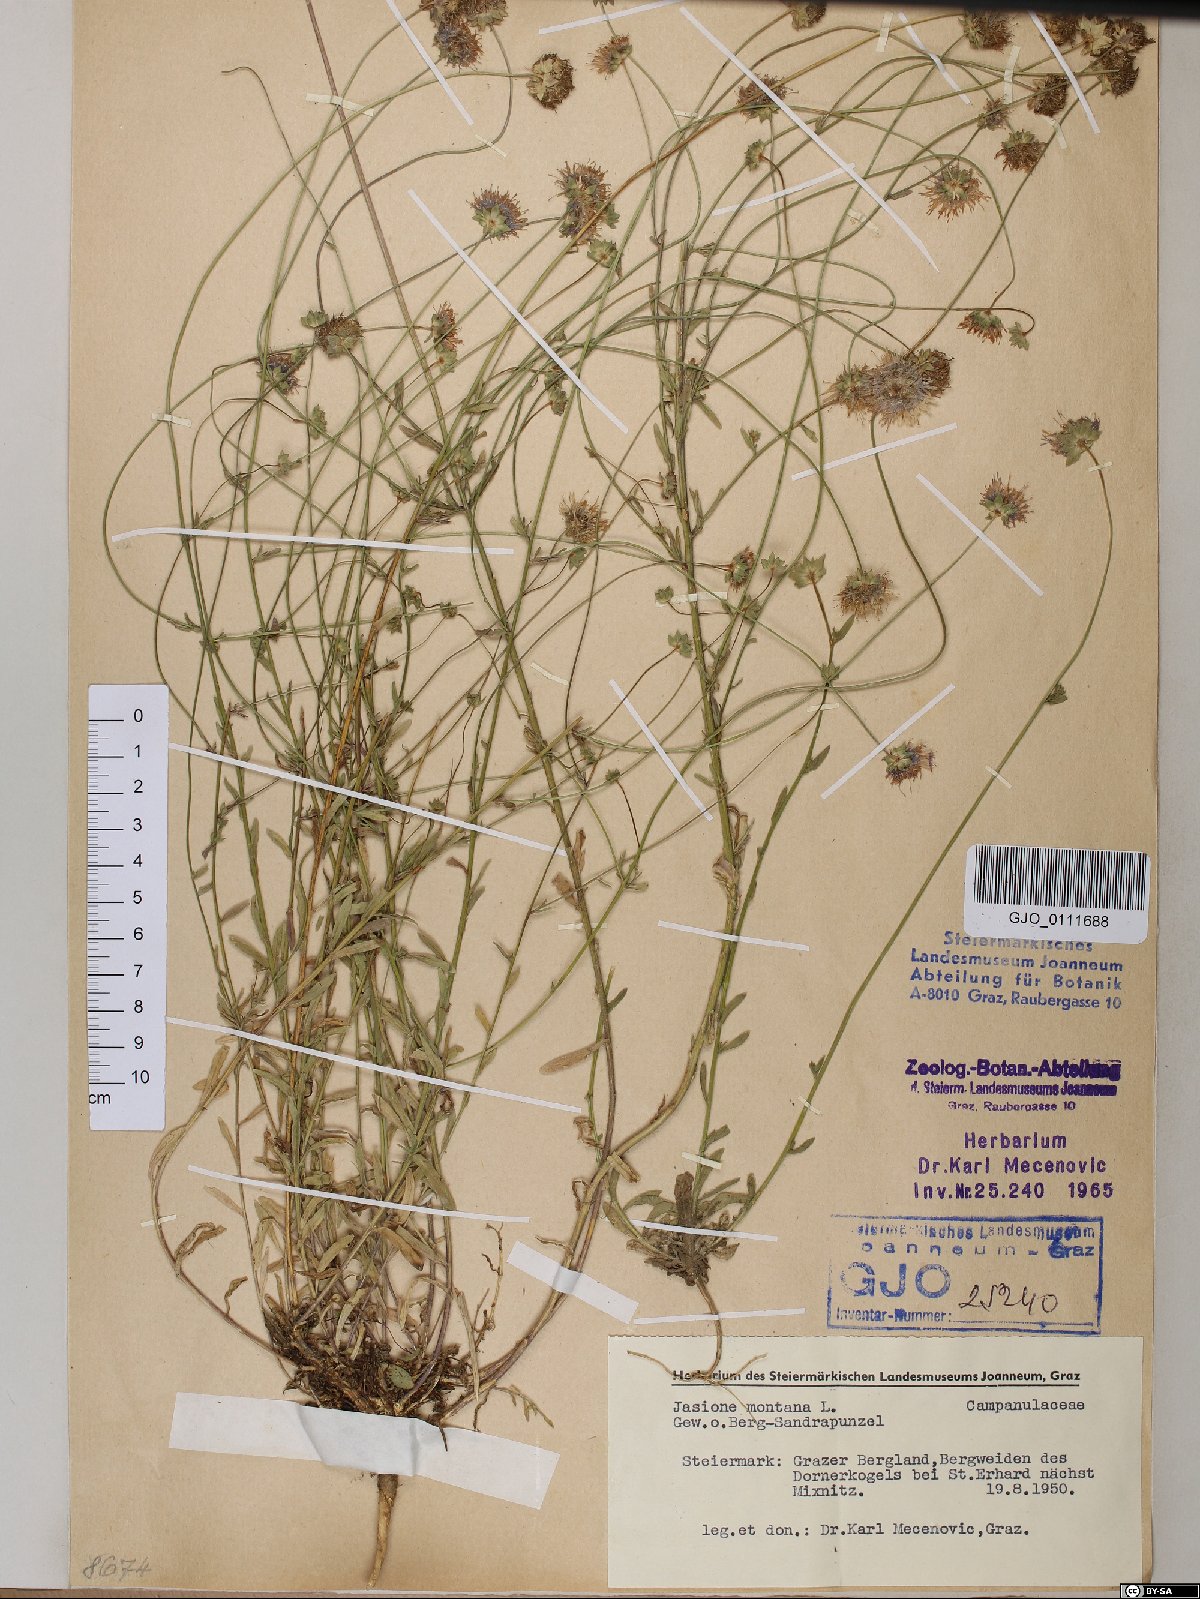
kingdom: Plantae
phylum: Tracheophyta
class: Magnoliopsida
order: Asterales
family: Campanulaceae
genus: Jasione
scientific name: Jasione montana
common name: Sheep's-bit
